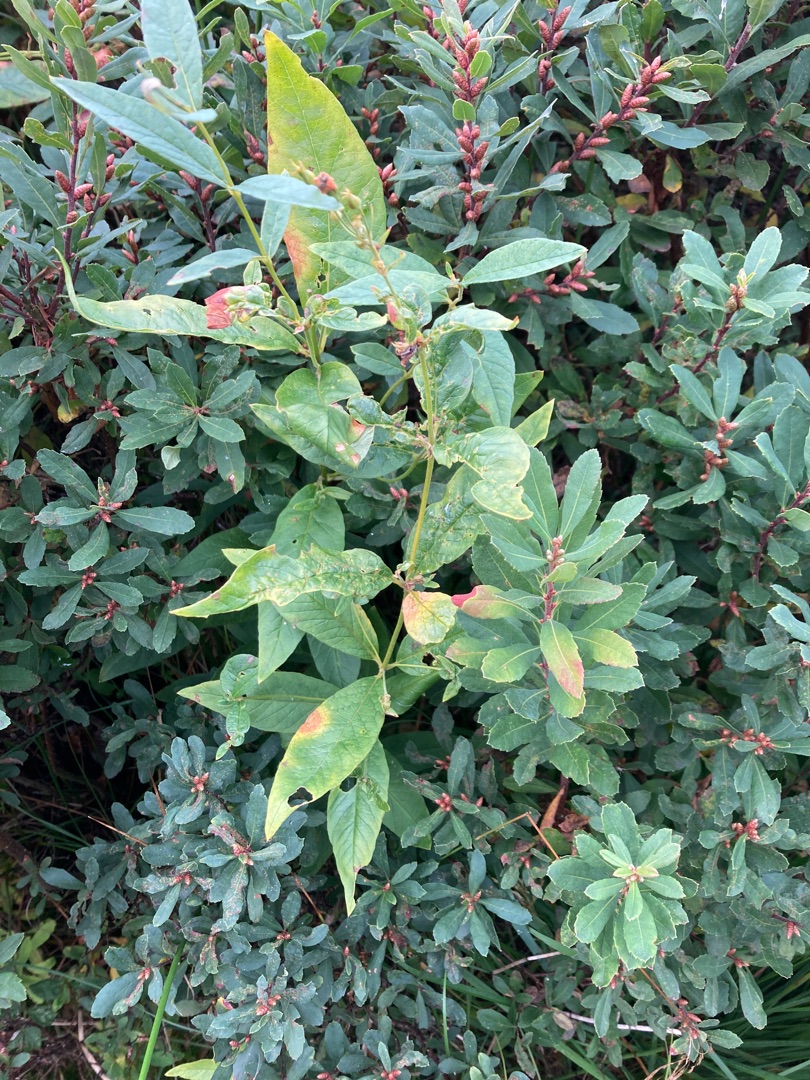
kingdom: Plantae
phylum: Tracheophyta
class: Magnoliopsida
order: Ericales
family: Primulaceae
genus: Lysimachia
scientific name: Lysimachia vulgaris
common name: Almindelig fredløs
